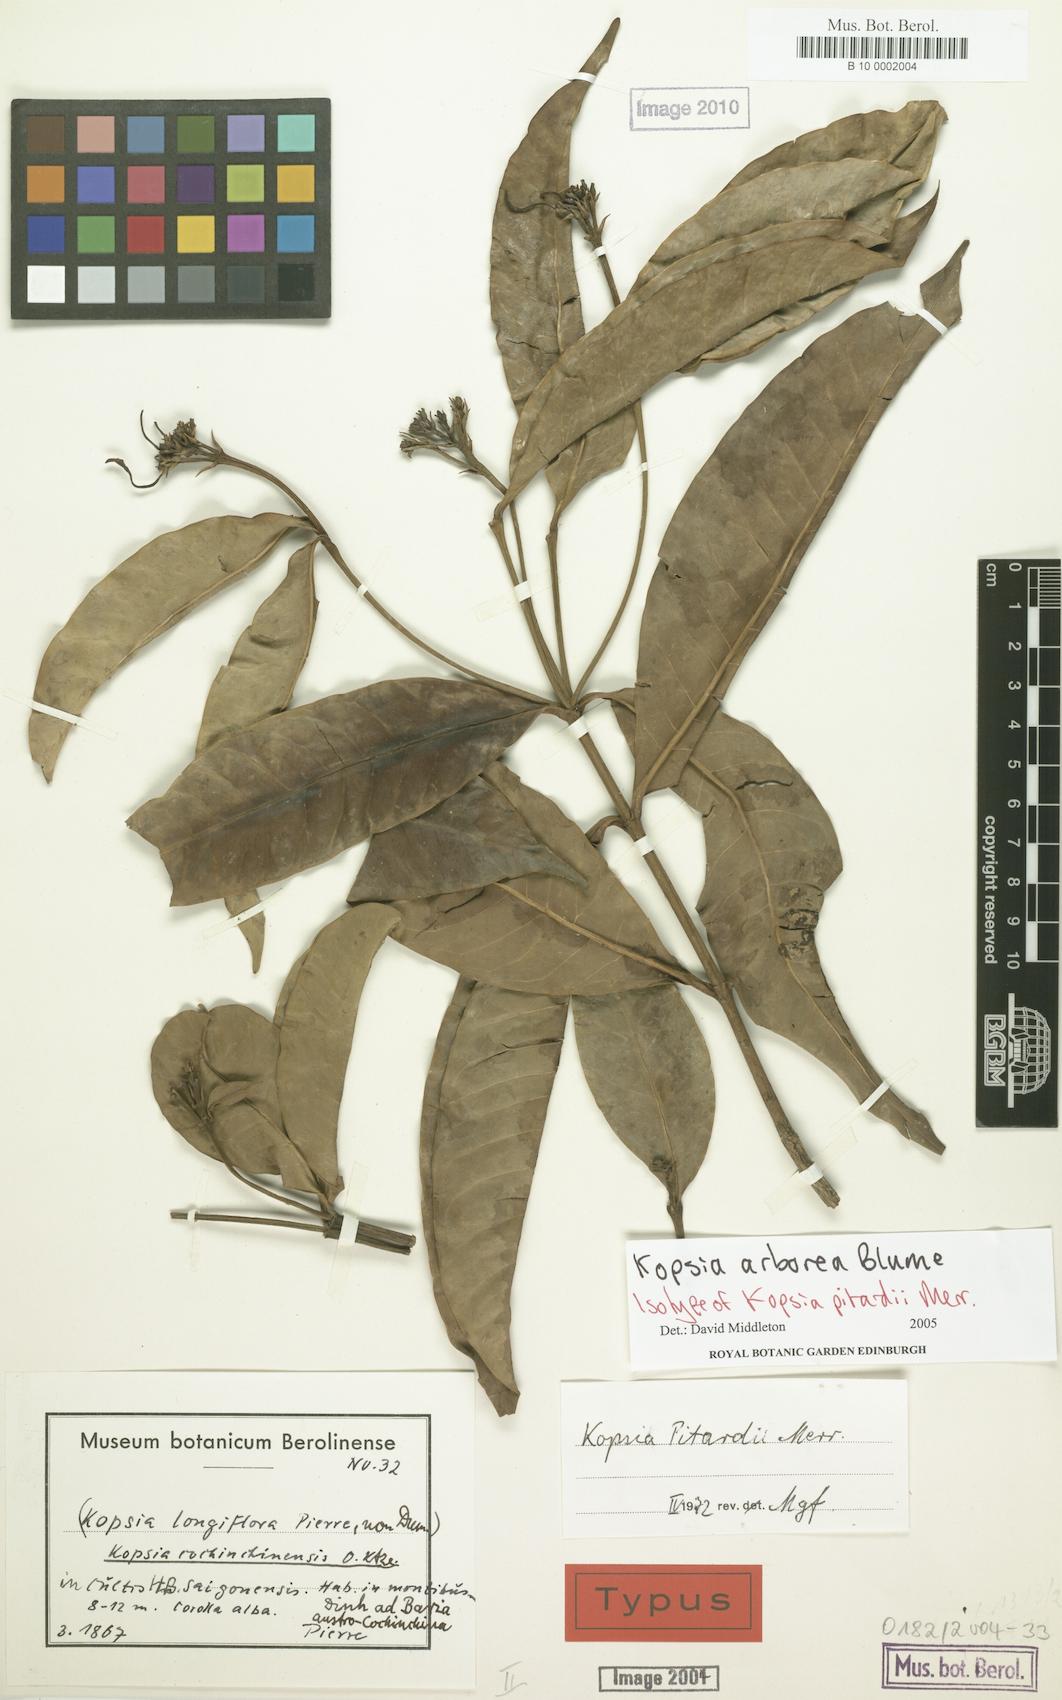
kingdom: Plantae
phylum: Tracheophyta
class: Magnoliopsida
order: Gentianales
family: Apocynaceae
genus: Kopsia
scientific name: Kopsia arborea
